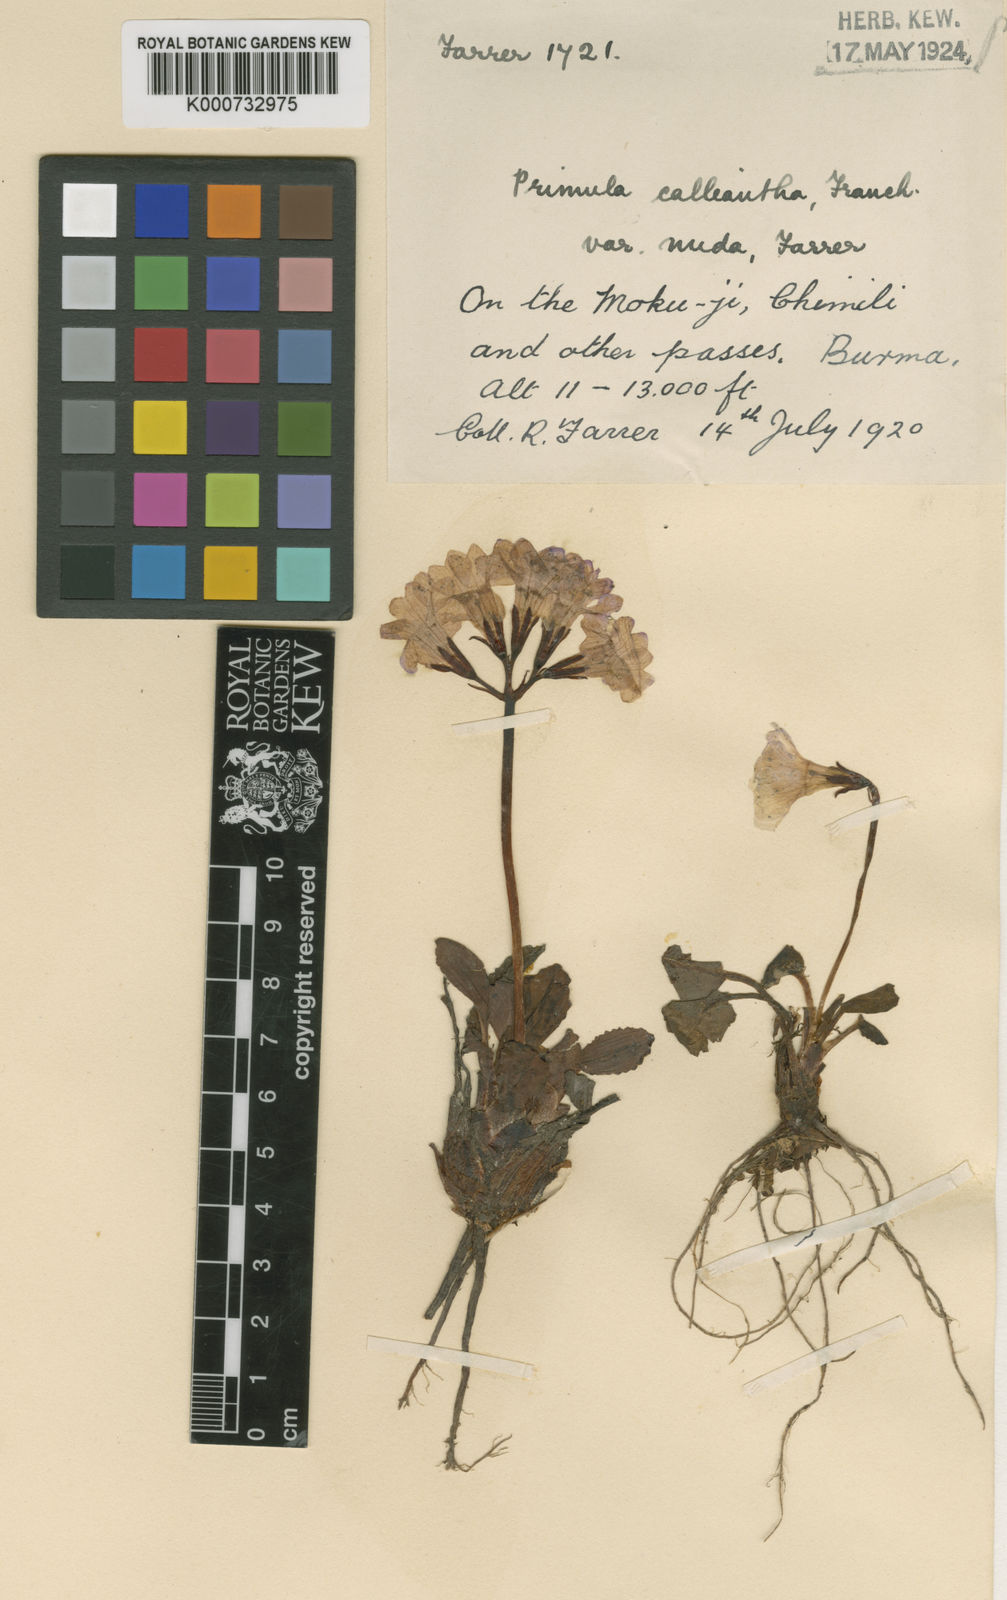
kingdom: Plantae
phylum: Tracheophyta
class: Magnoliopsida
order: Ericales
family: Primulaceae
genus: Primula
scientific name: Primula
